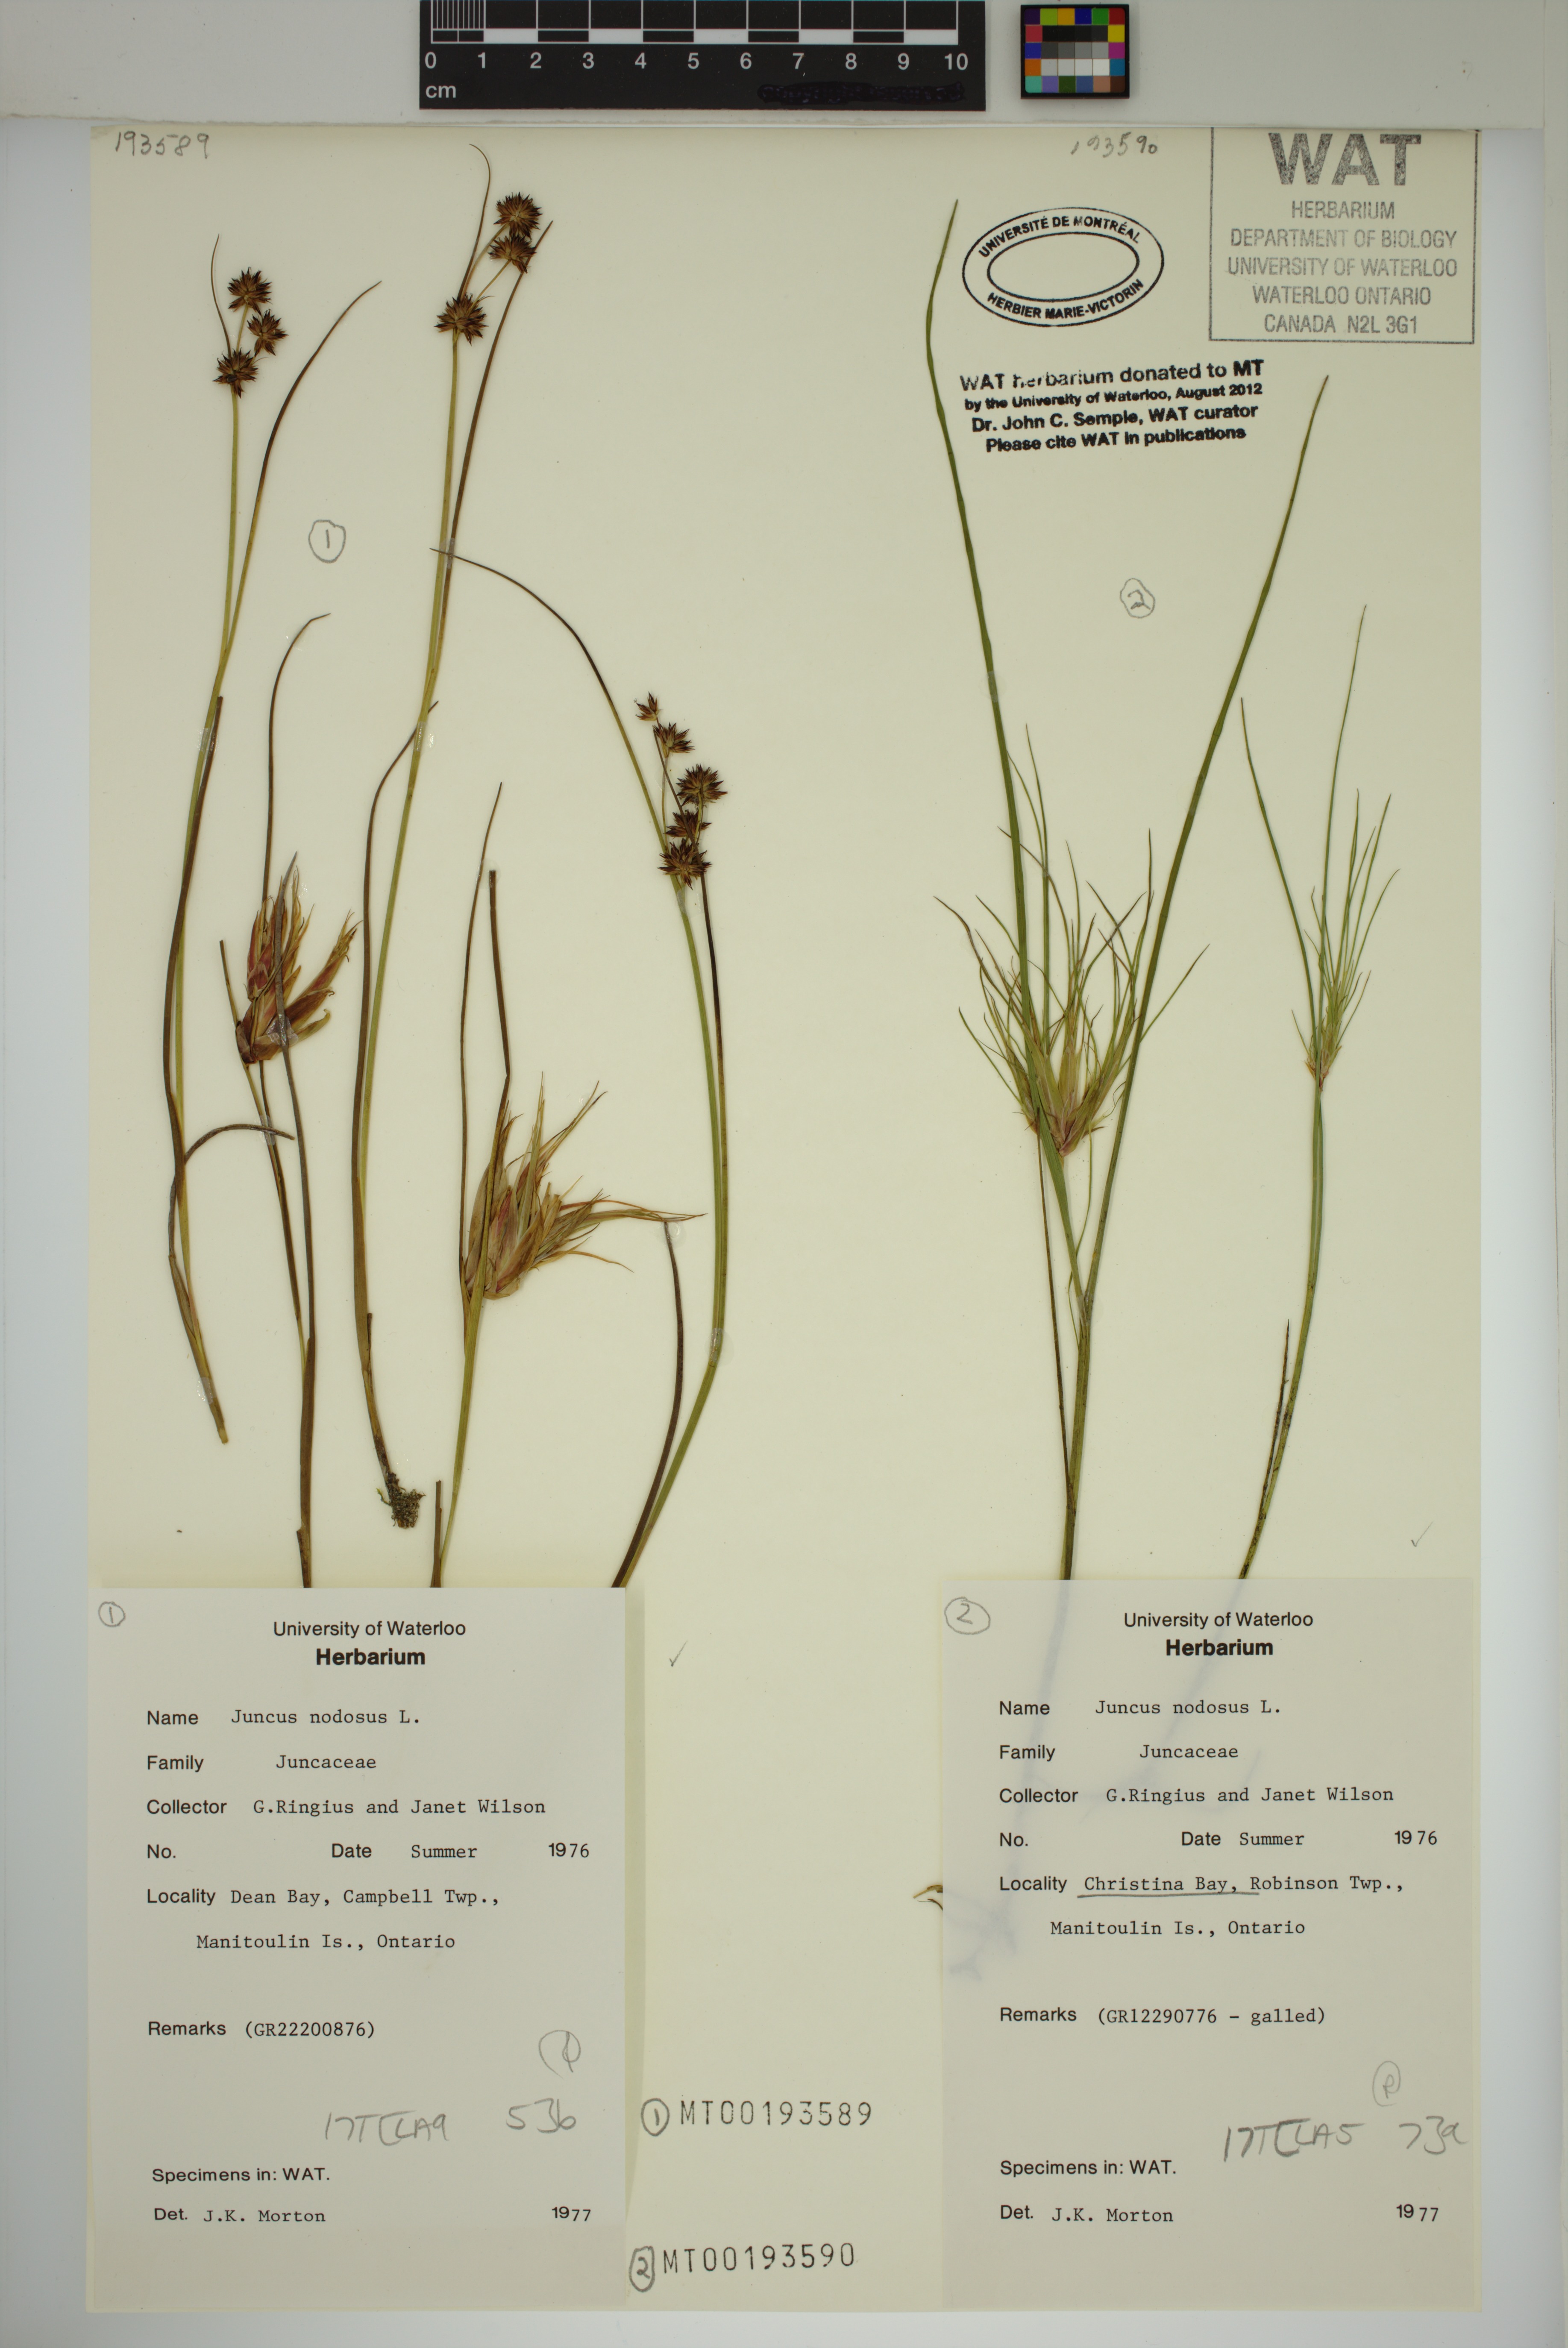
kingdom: Plantae
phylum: Tracheophyta
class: Liliopsida
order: Poales
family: Juncaceae
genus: Juncus
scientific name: Juncus nodosus
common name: Knotted rush
